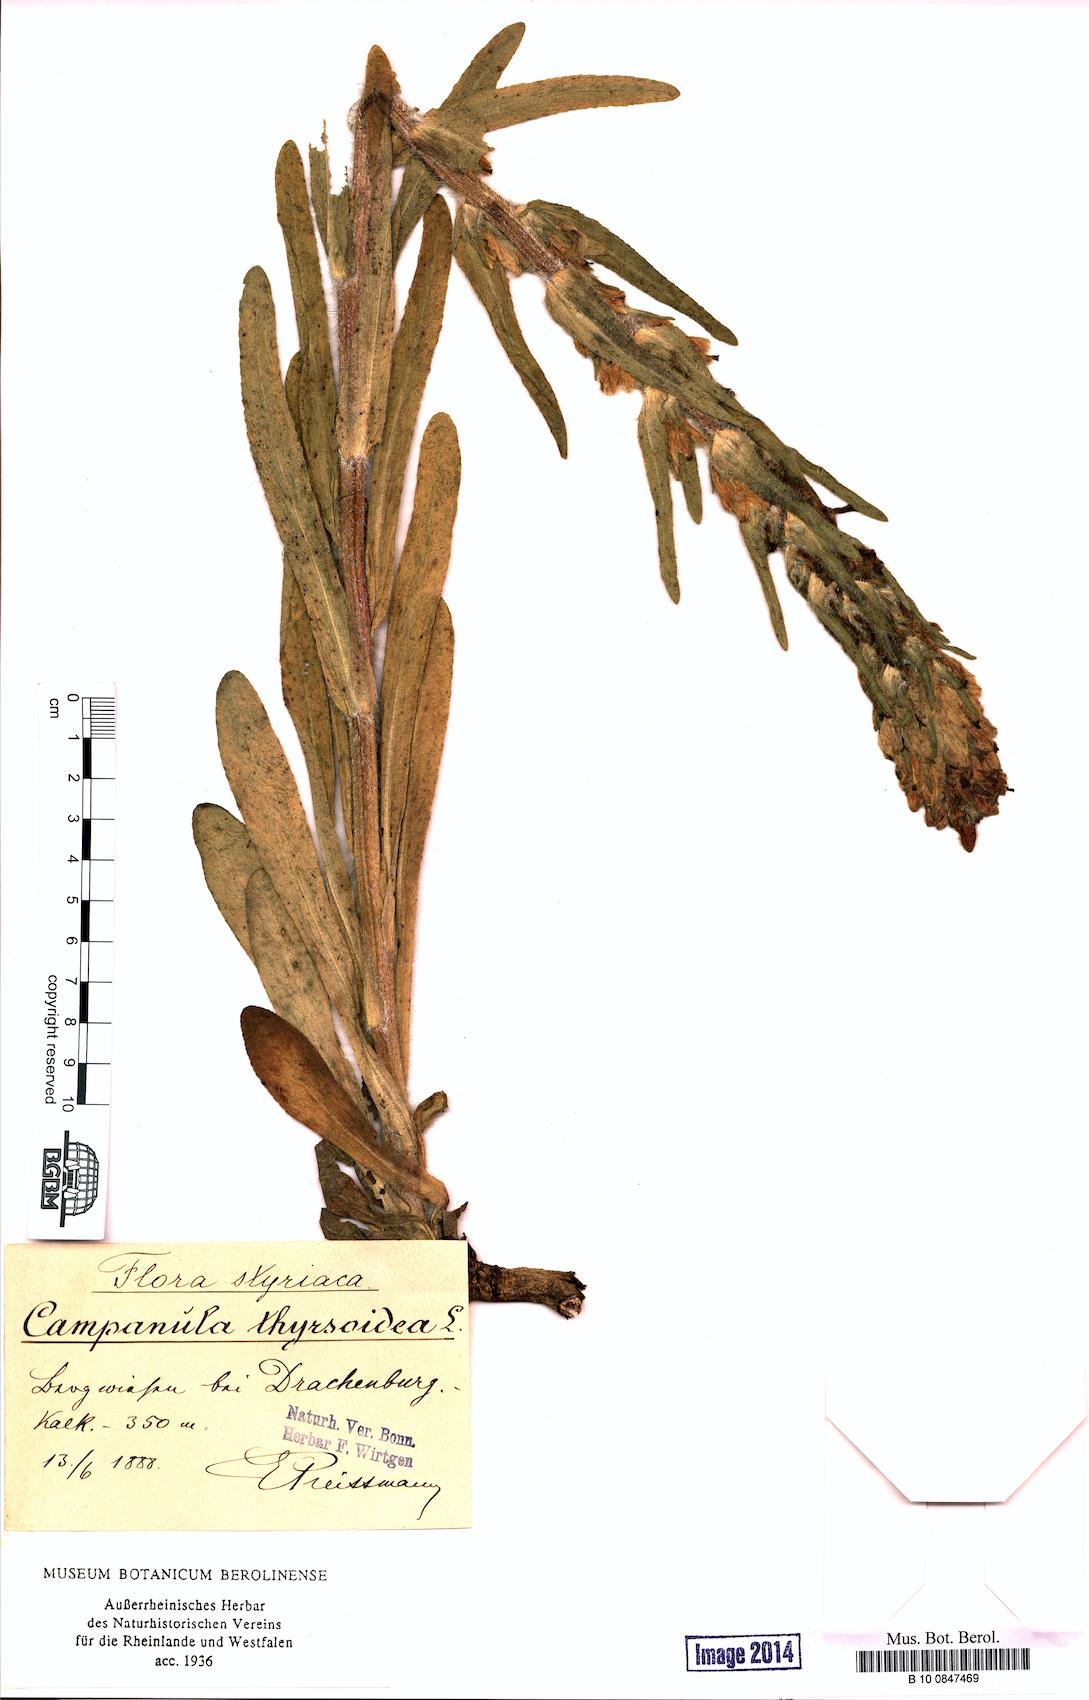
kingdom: Plantae
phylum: Tracheophyta
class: Magnoliopsida
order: Asterales
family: Campanulaceae
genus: Campanula
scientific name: Campanula thyrsoides
